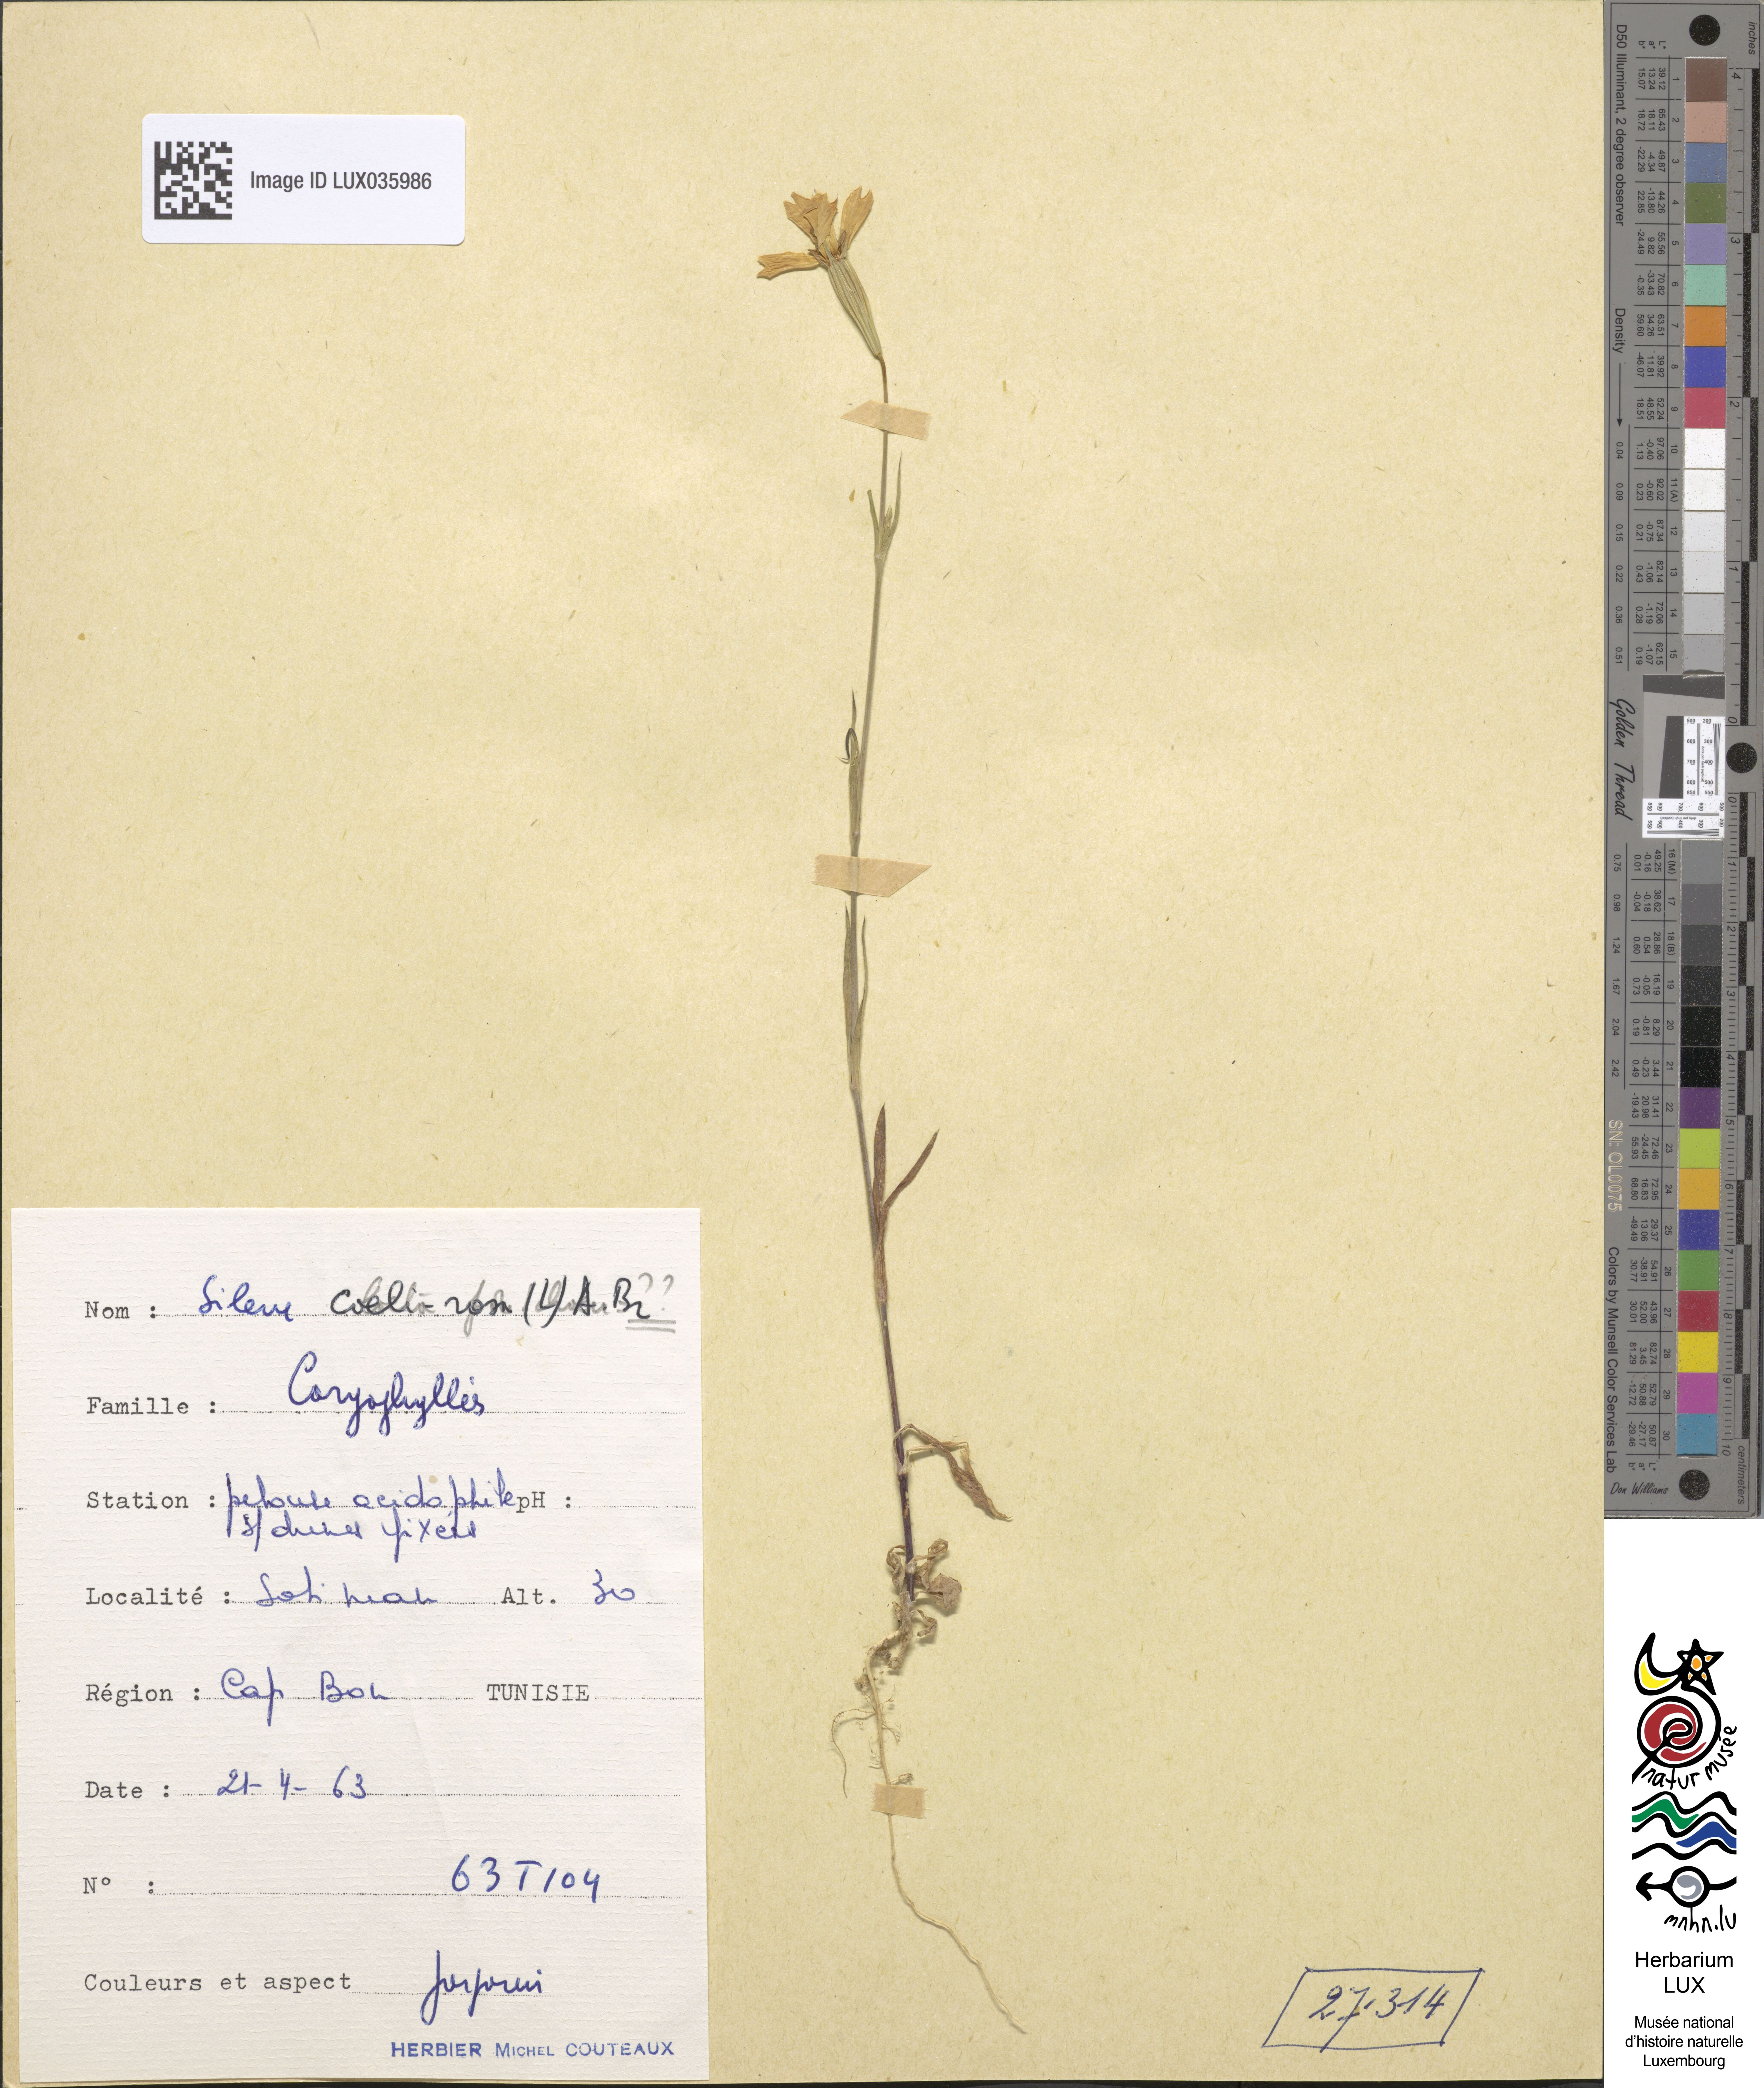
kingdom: Plantae
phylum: Tracheophyta
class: Magnoliopsida
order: Caryophyllales
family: Caryophyllaceae
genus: Eudianthe
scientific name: Eudianthe coeli-rosa
